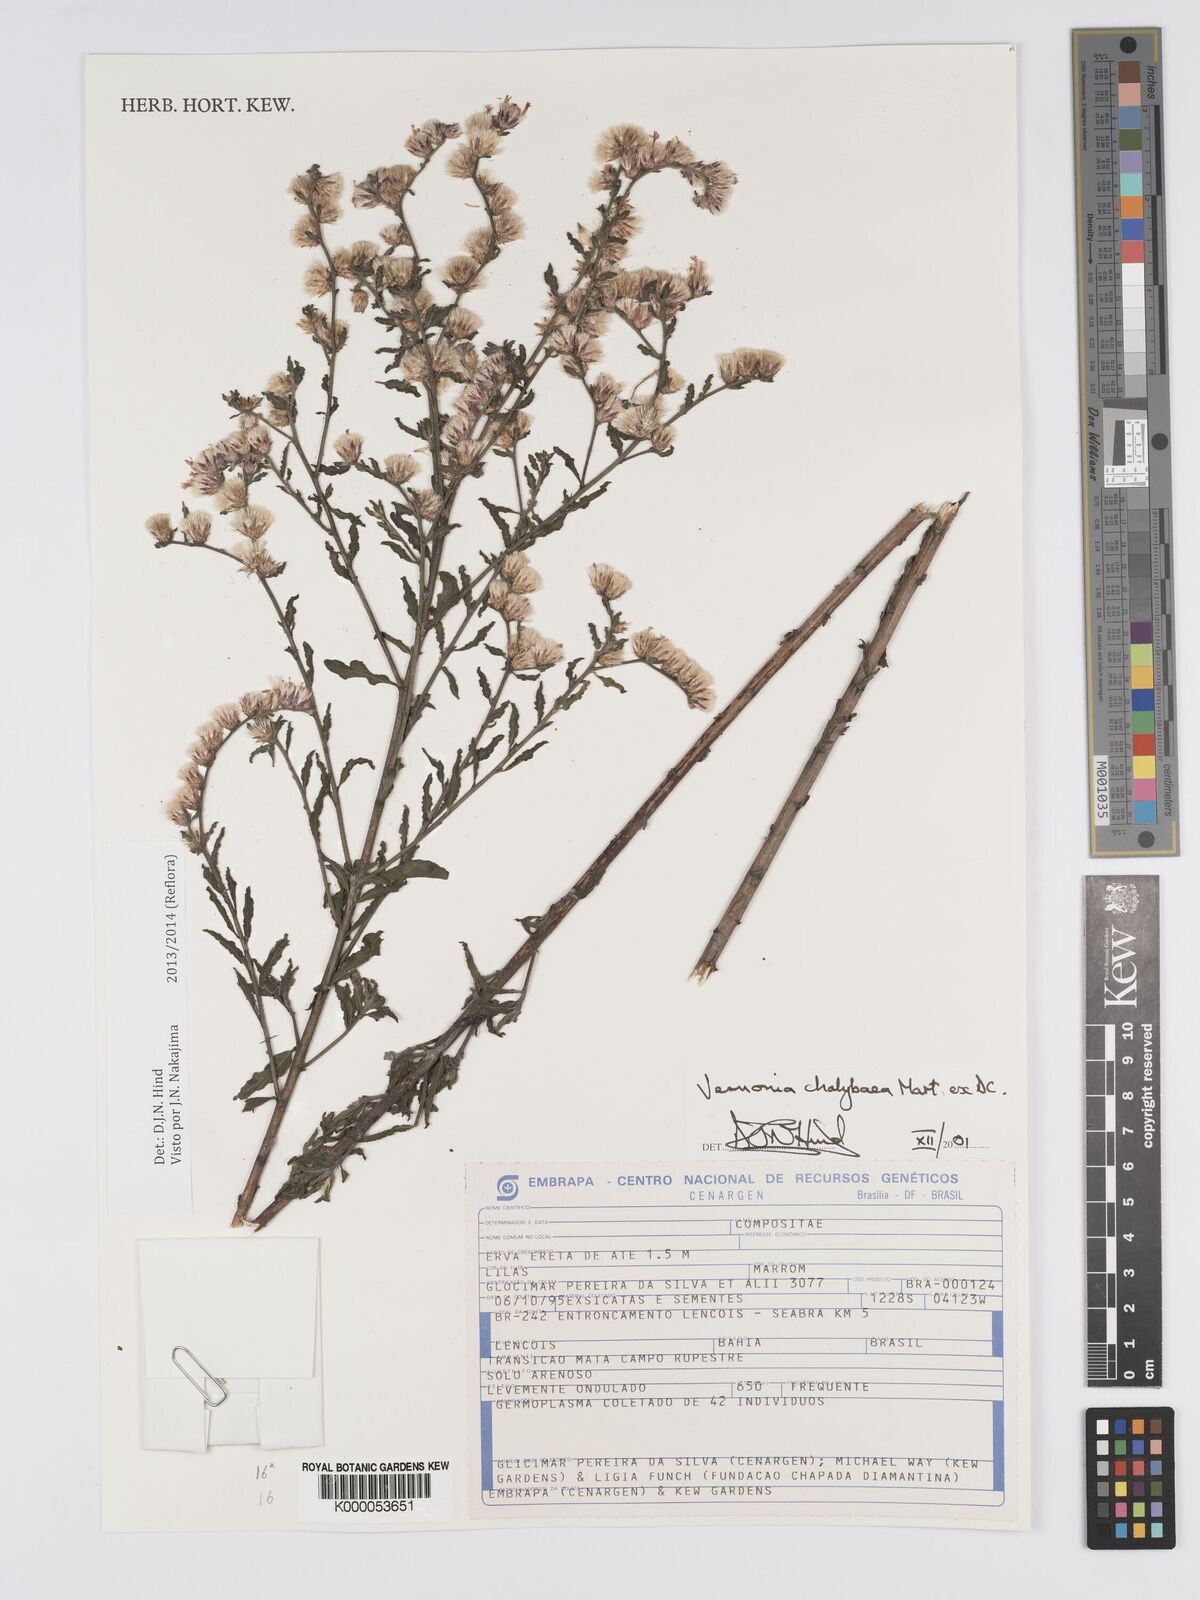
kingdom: Plantae
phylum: Tracheophyta
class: Magnoliopsida
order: Asterales
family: Asteraceae
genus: Lepidaploa
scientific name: Lepidaploa chalybaea
